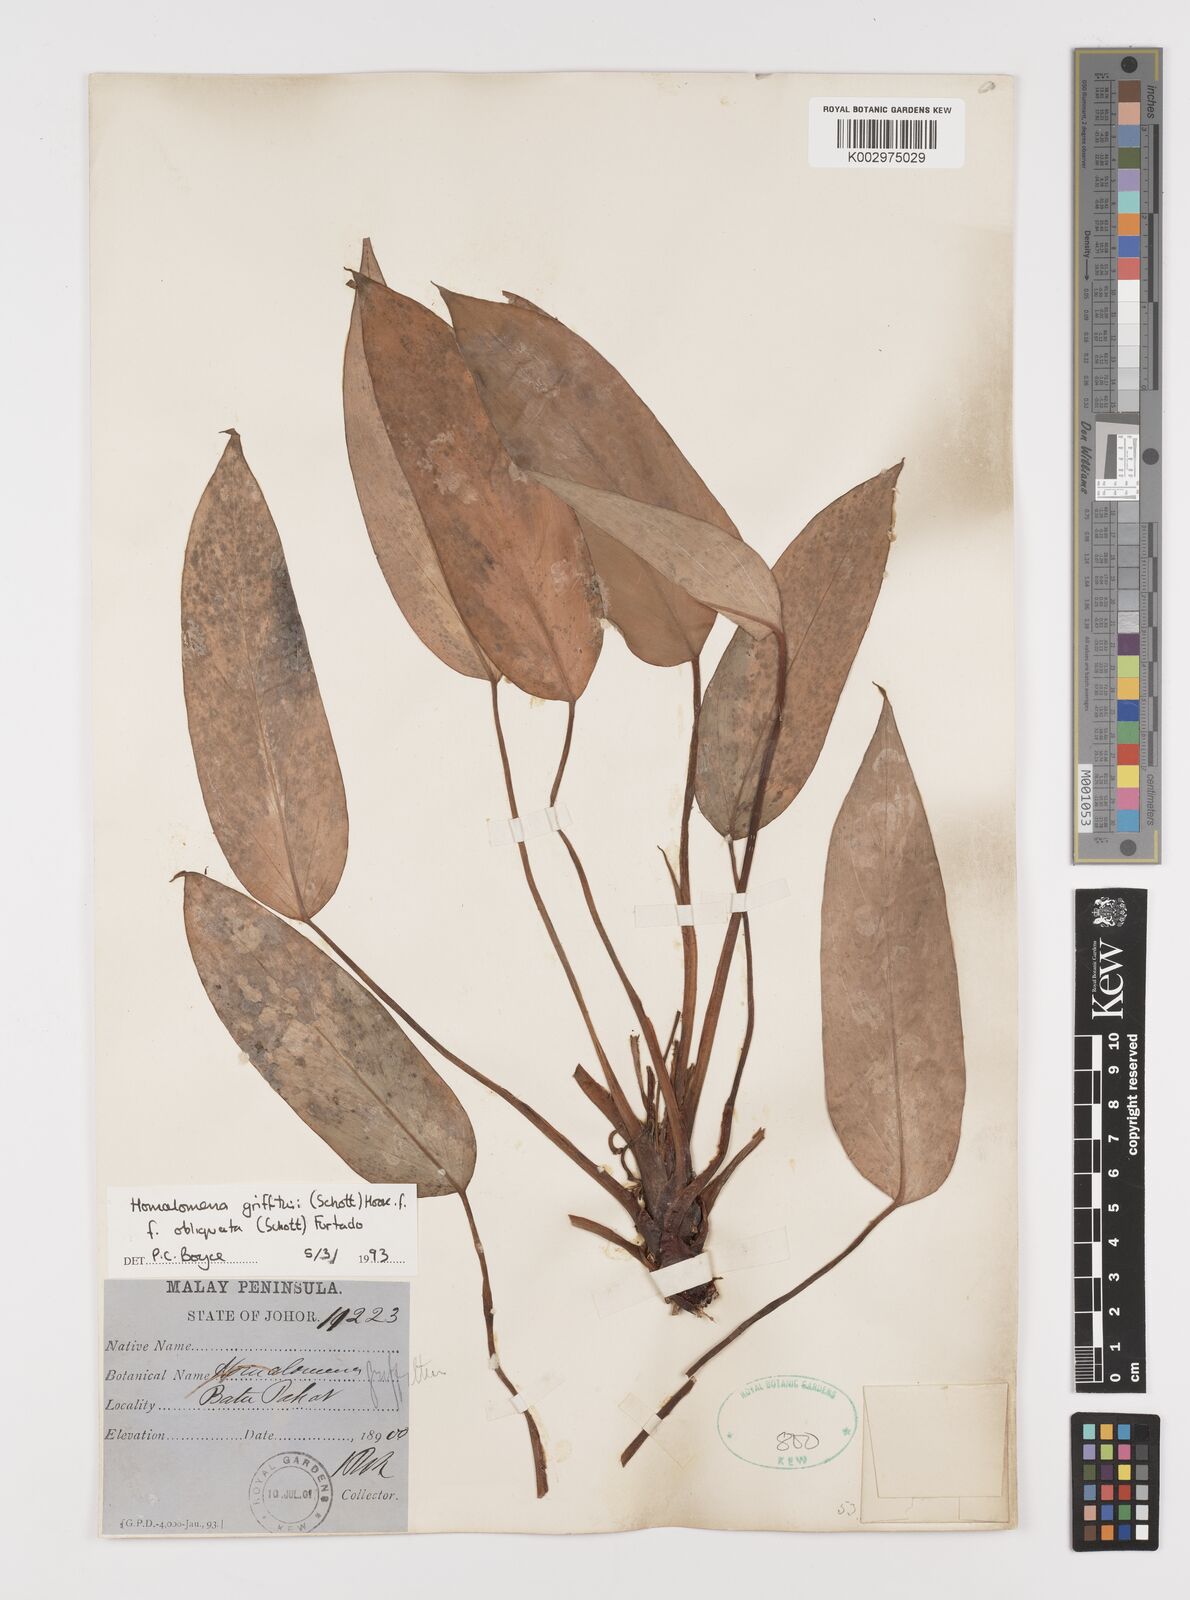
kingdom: Plantae
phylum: Tracheophyta
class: Liliopsida
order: Alismatales
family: Araceae
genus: Homalomena
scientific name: Homalomena griffithii
